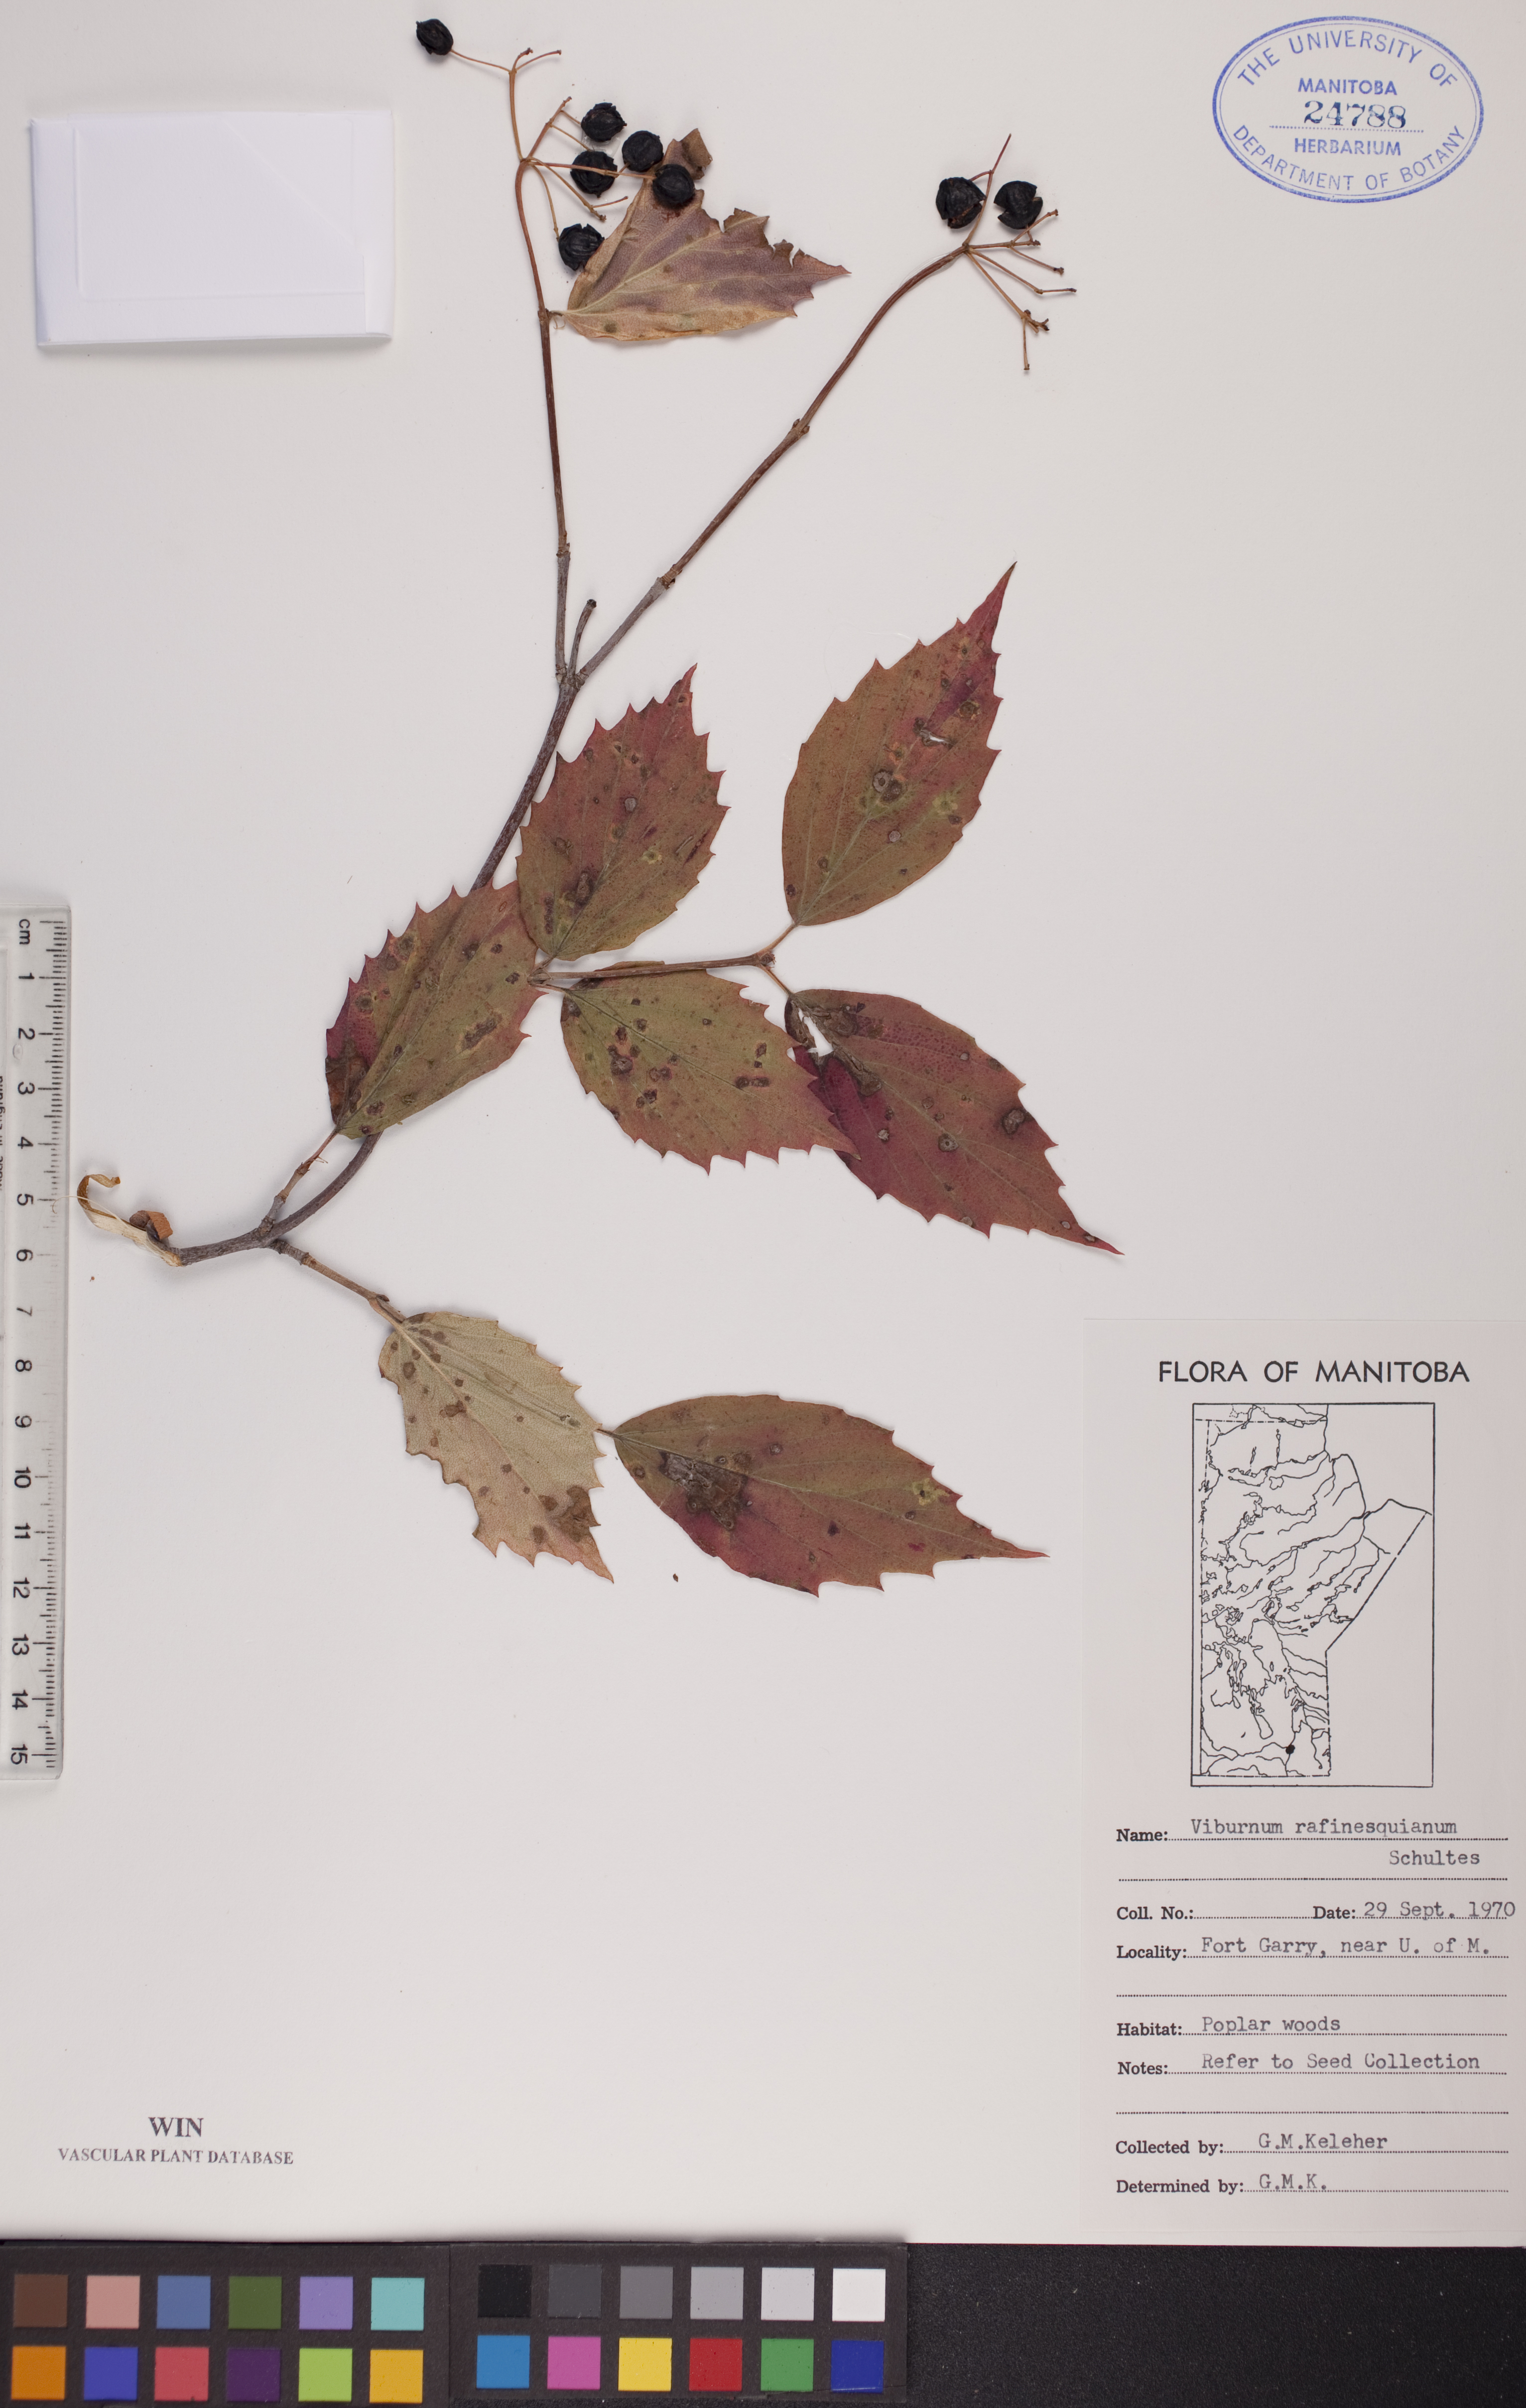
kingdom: Plantae
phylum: Tracheophyta
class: Magnoliopsida
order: Dipsacales
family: Viburnaceae
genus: Viburnum
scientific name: Viburnum rafinesquianum
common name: Downy arrow-wood
